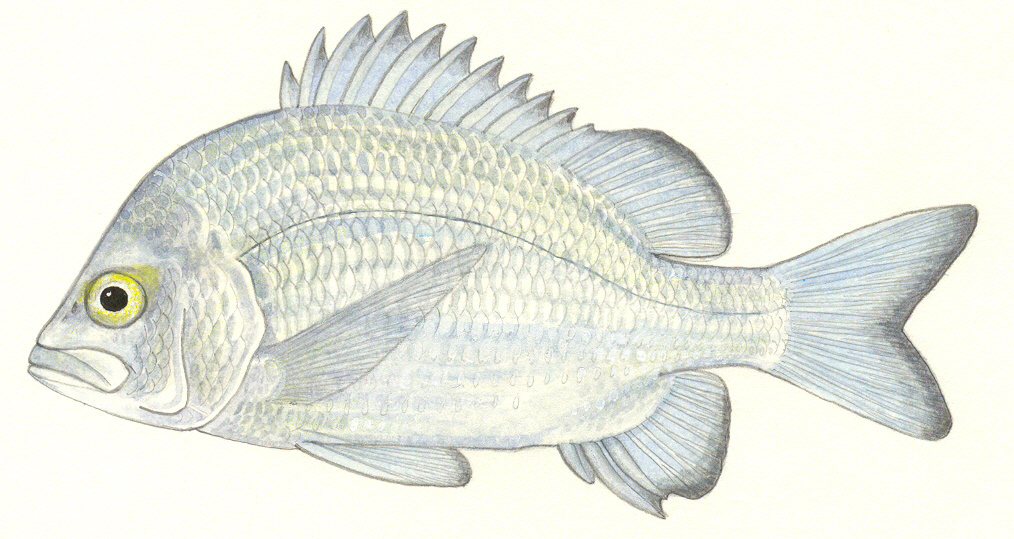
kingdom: Animalia
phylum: Chordata
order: Perciformes
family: Sparidae
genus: Acanthopagrus
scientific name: Acanthopagrus berda
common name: Picnic seabream
